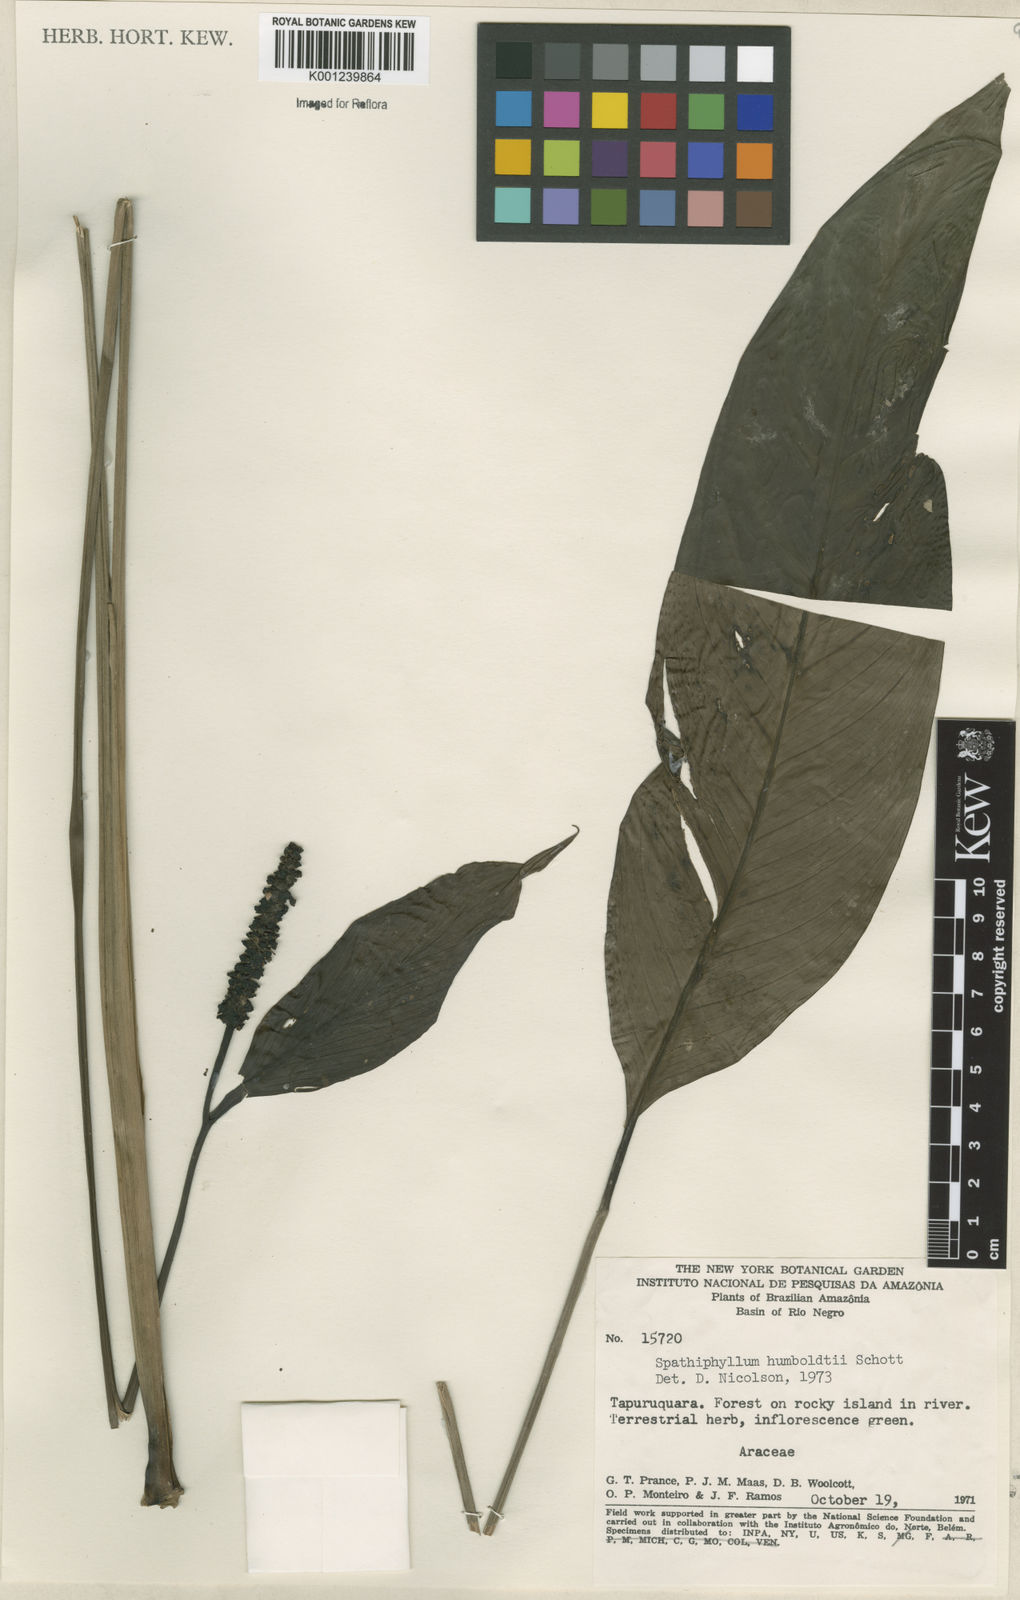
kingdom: Plantae
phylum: Tracheophyta
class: Liliopsida
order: Alismatales
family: Araceae
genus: Spathiphyllum
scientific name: Spathiphyllum humboldtii
